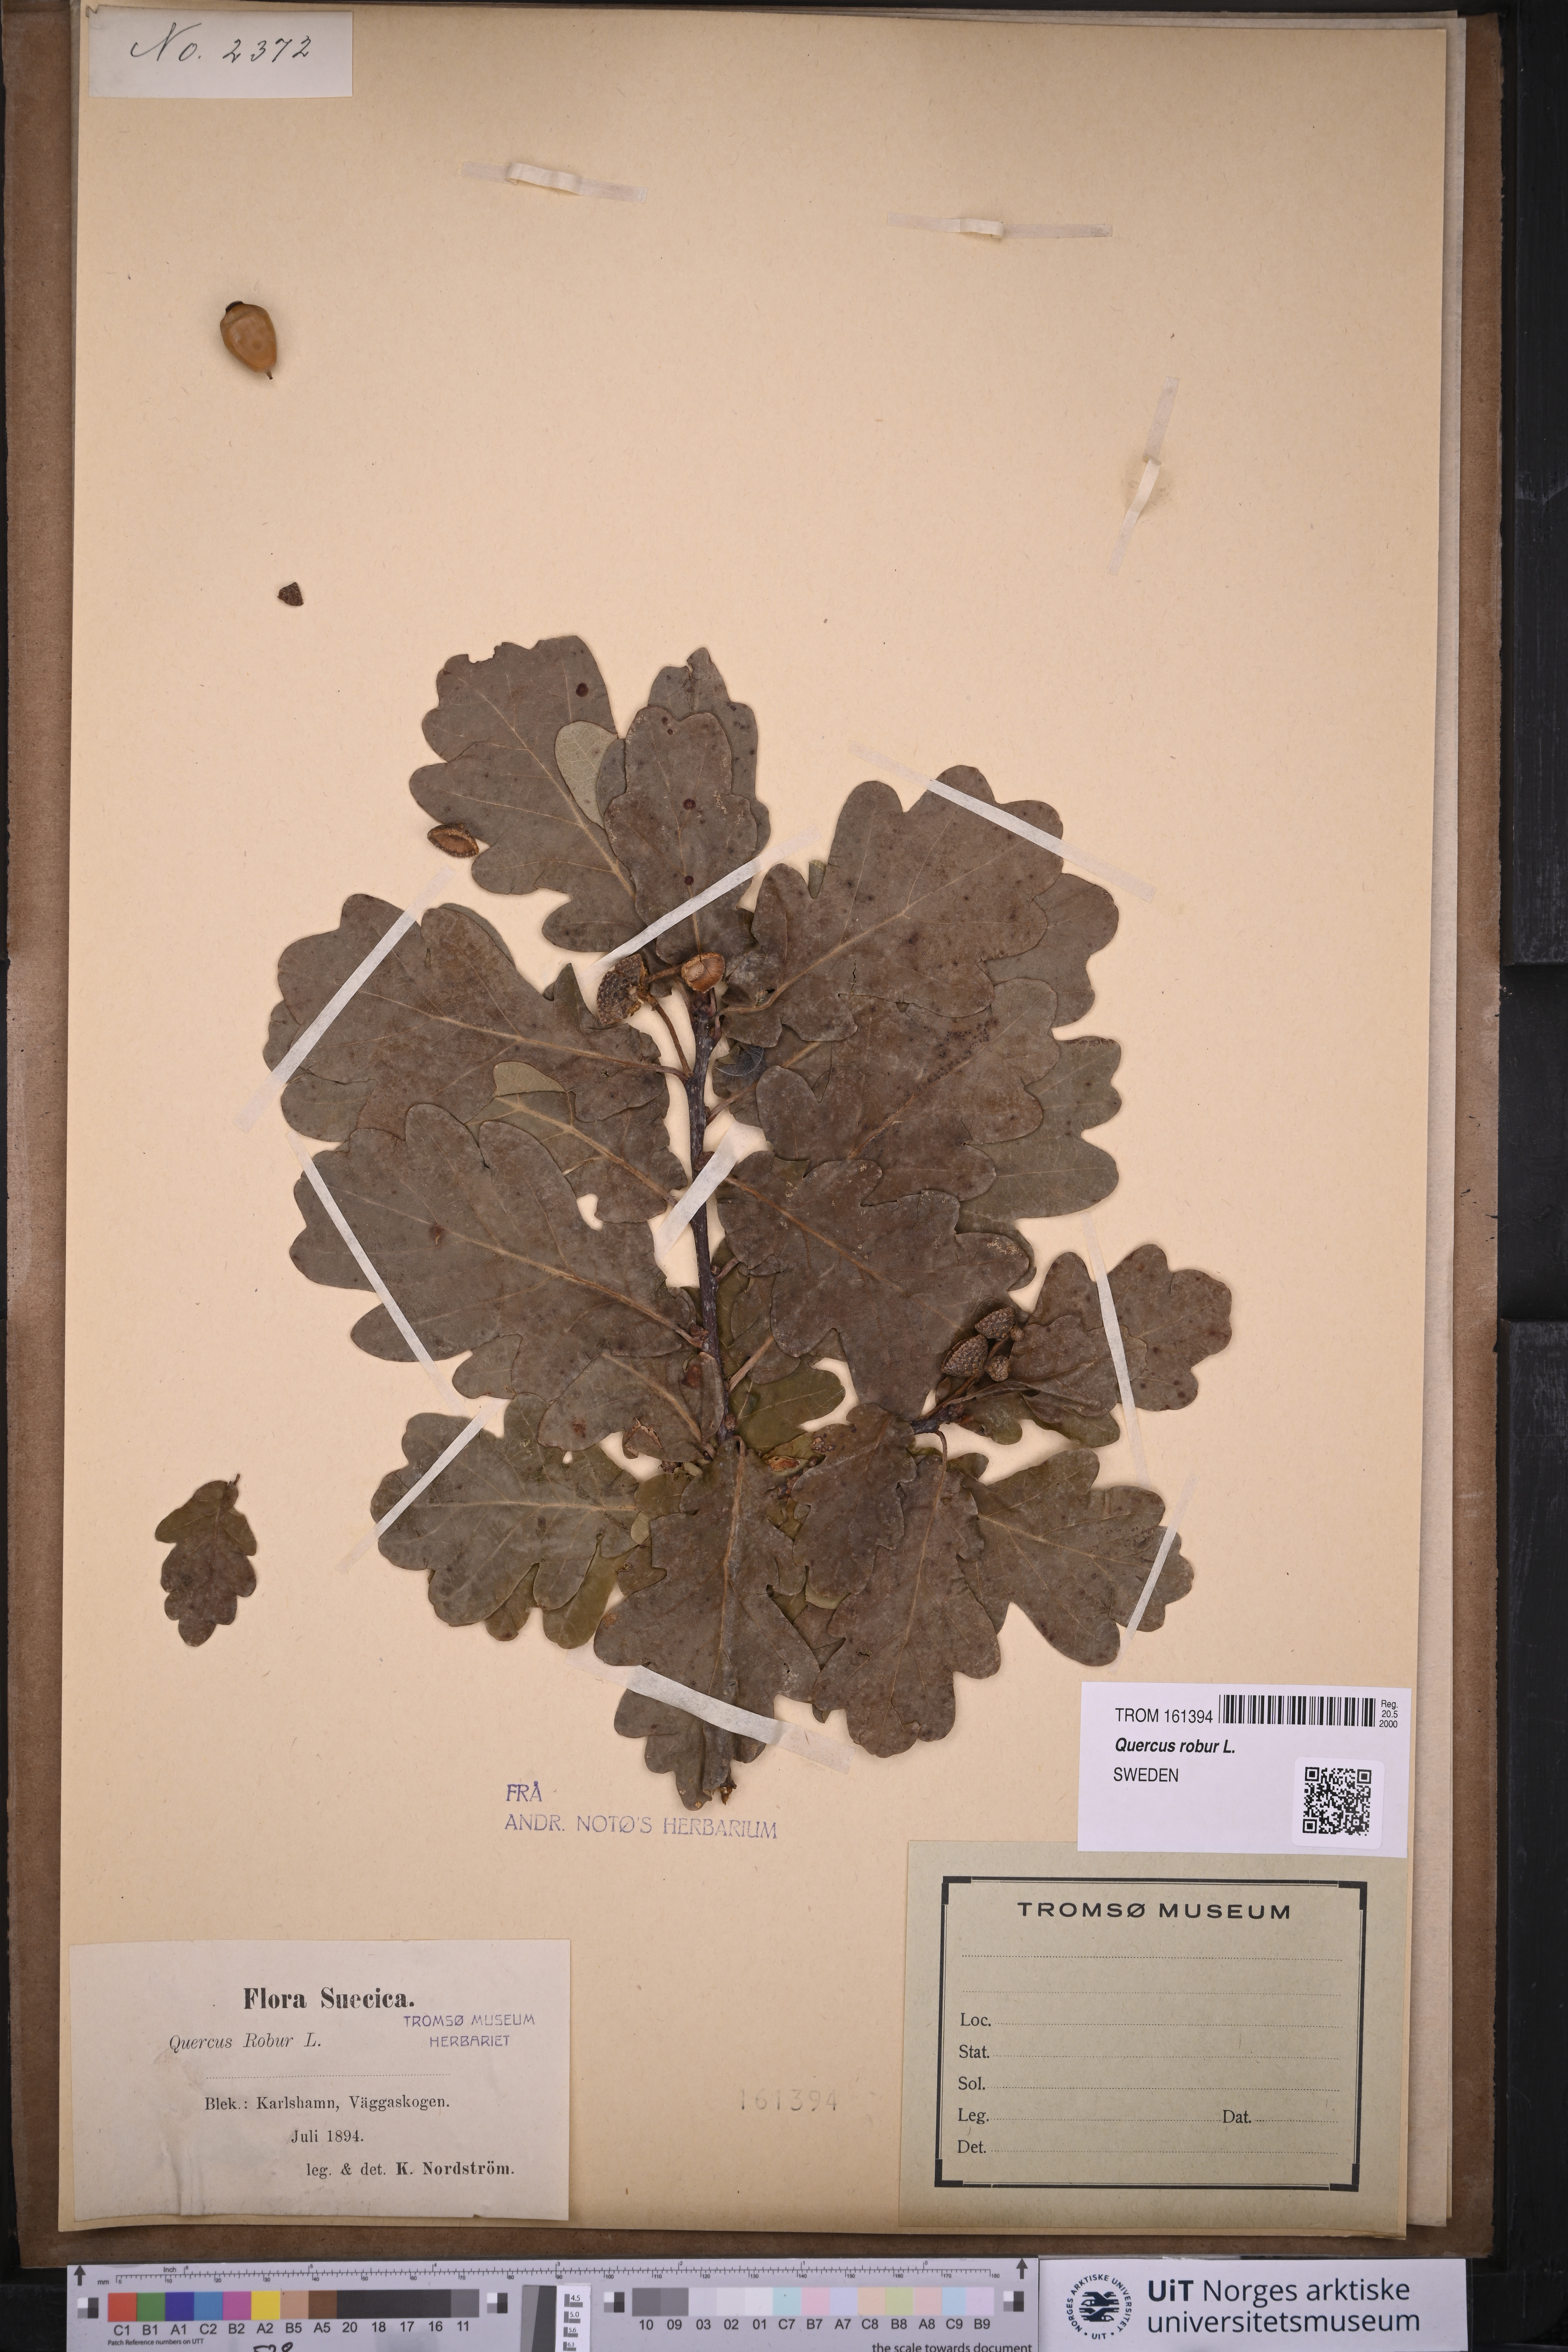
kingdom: Plantae
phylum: Tracheophyta
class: Magnoliopsida
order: Fagales
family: Fagaceae
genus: Quercus
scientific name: Quercus robur
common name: Pedunculate oak
